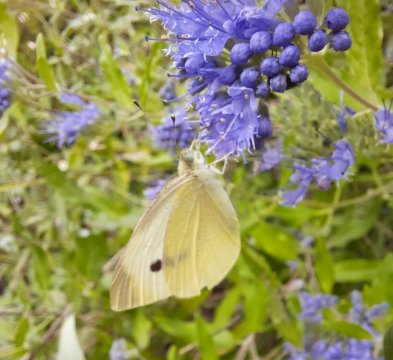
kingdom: Animalia
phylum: Arthropoda
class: Insecta
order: Lepidoptera
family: Pieridae
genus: Pieris
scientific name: Pieris rapae
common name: Cabbage White
